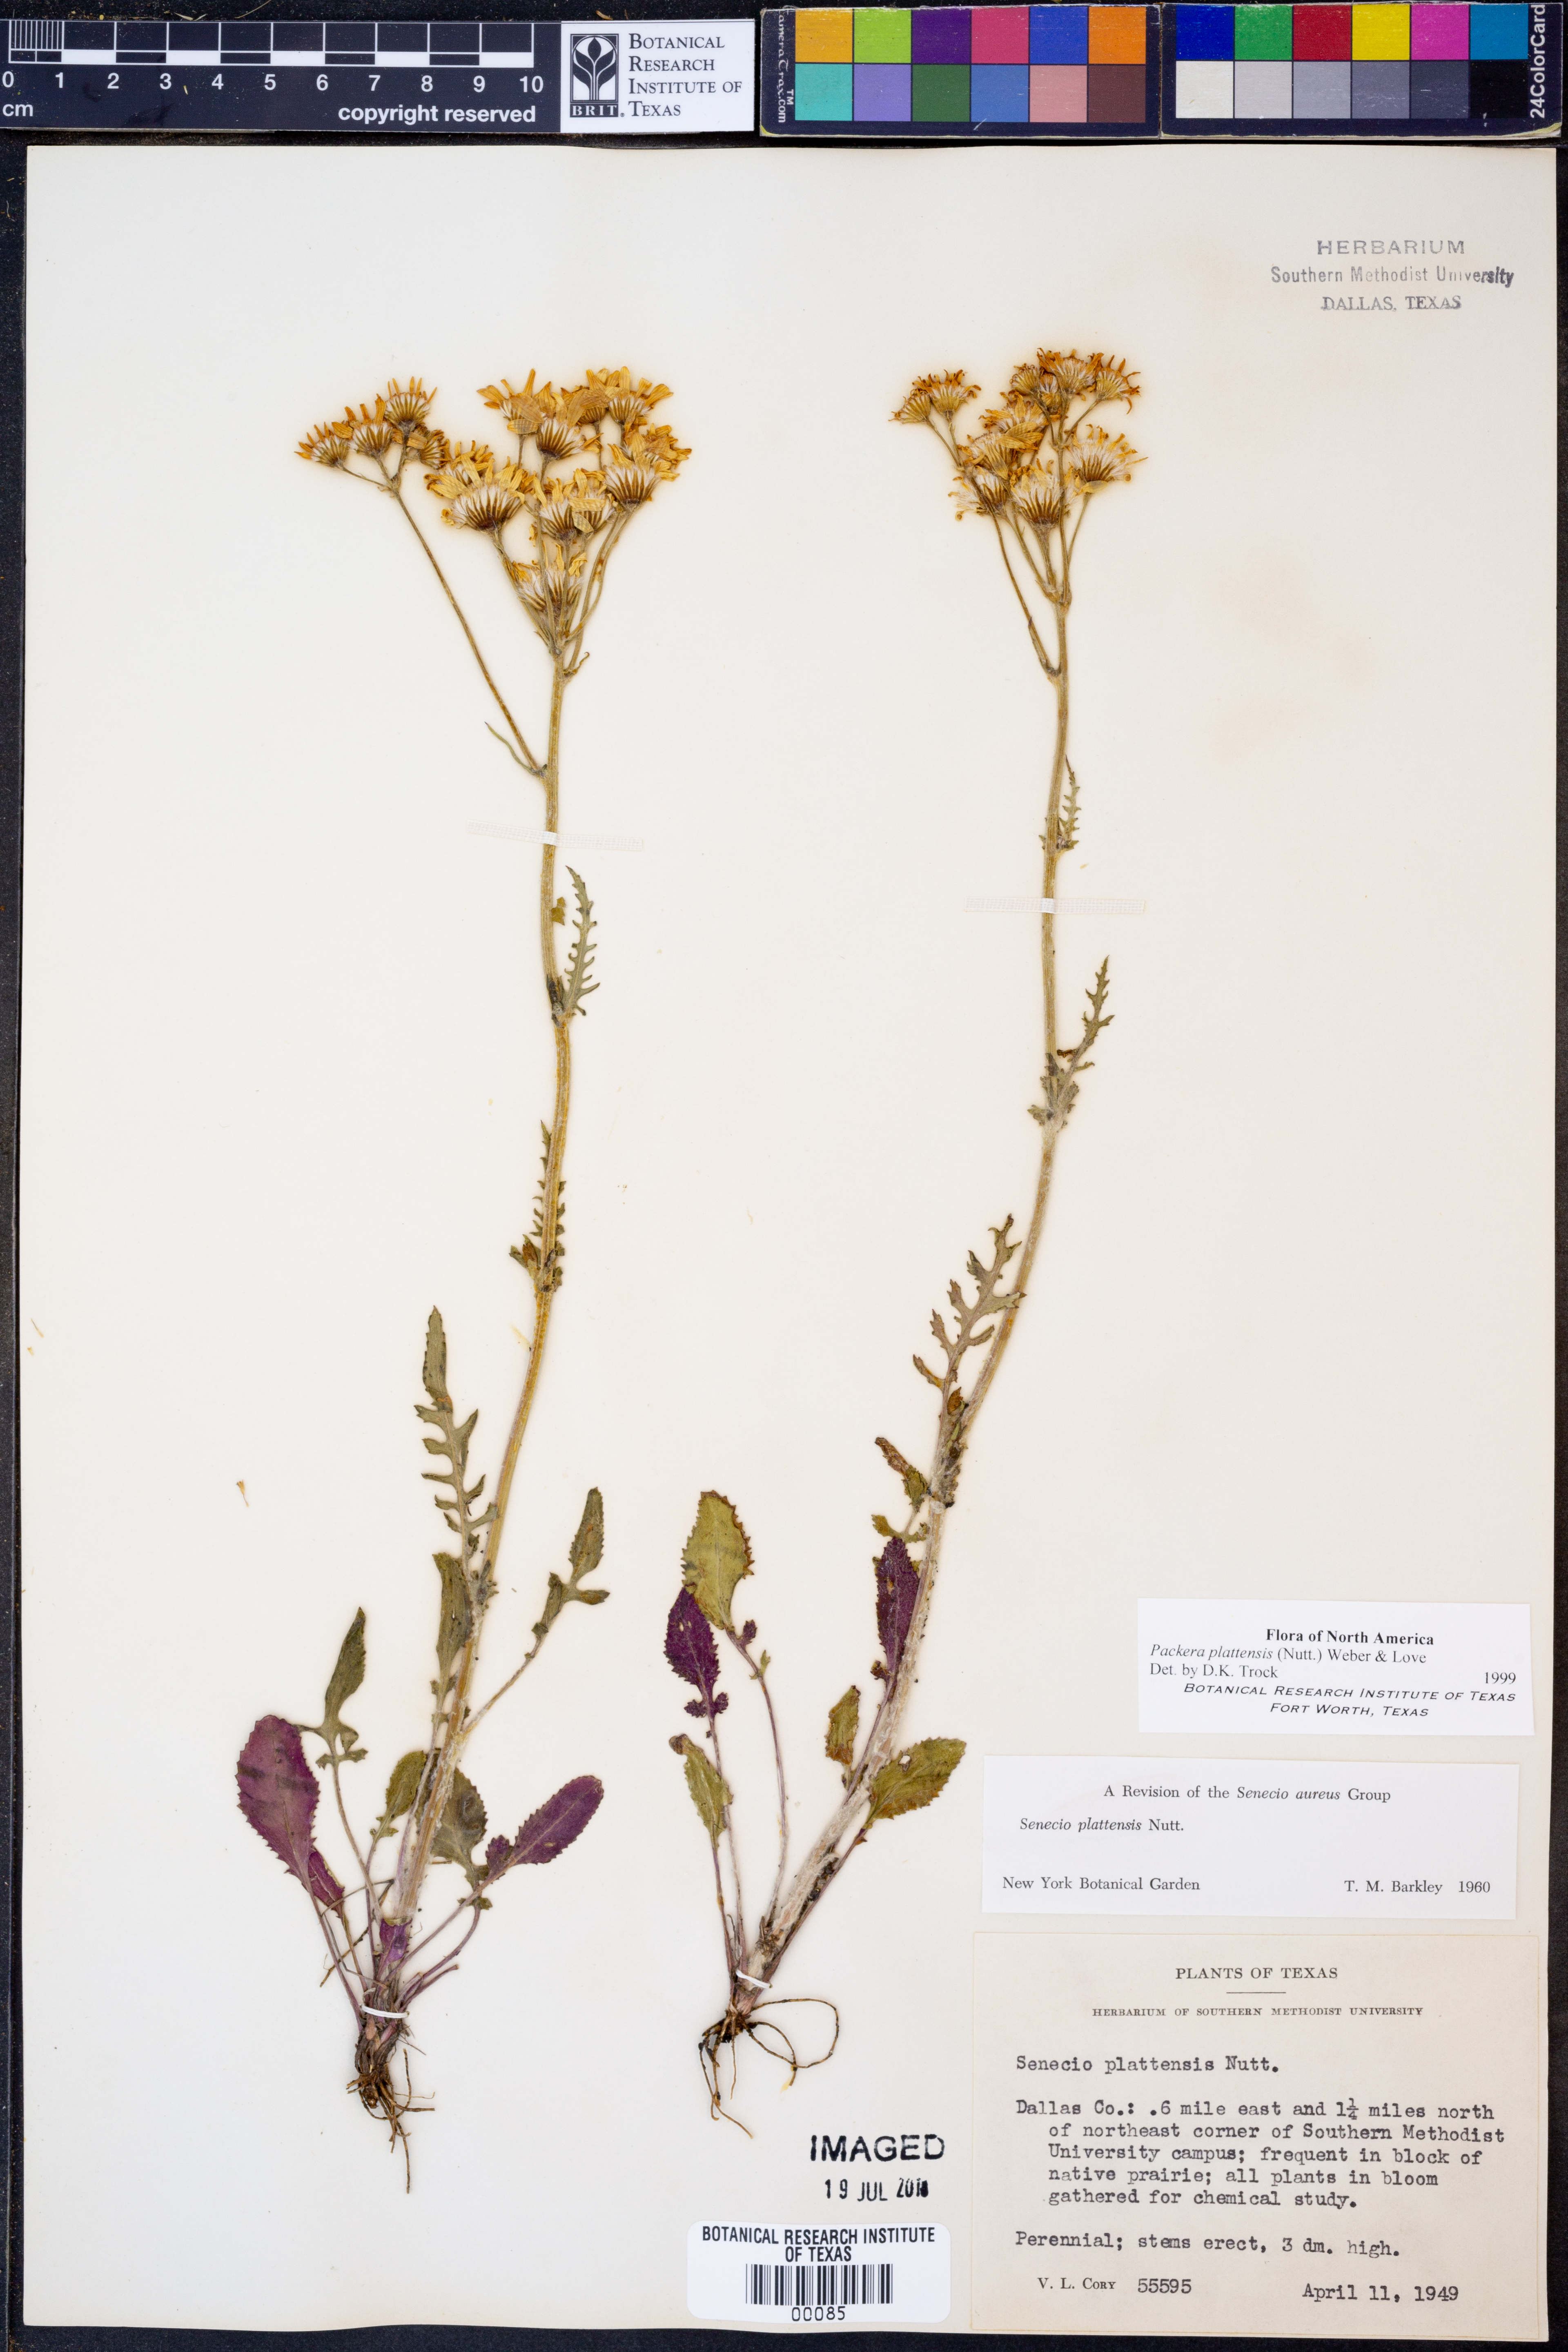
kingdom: Plantae
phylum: Tracheophyta
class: Magnoliopsida
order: Asterales
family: Asteraceae
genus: Packera
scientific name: Packera plattensis
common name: Prairie groundsel
